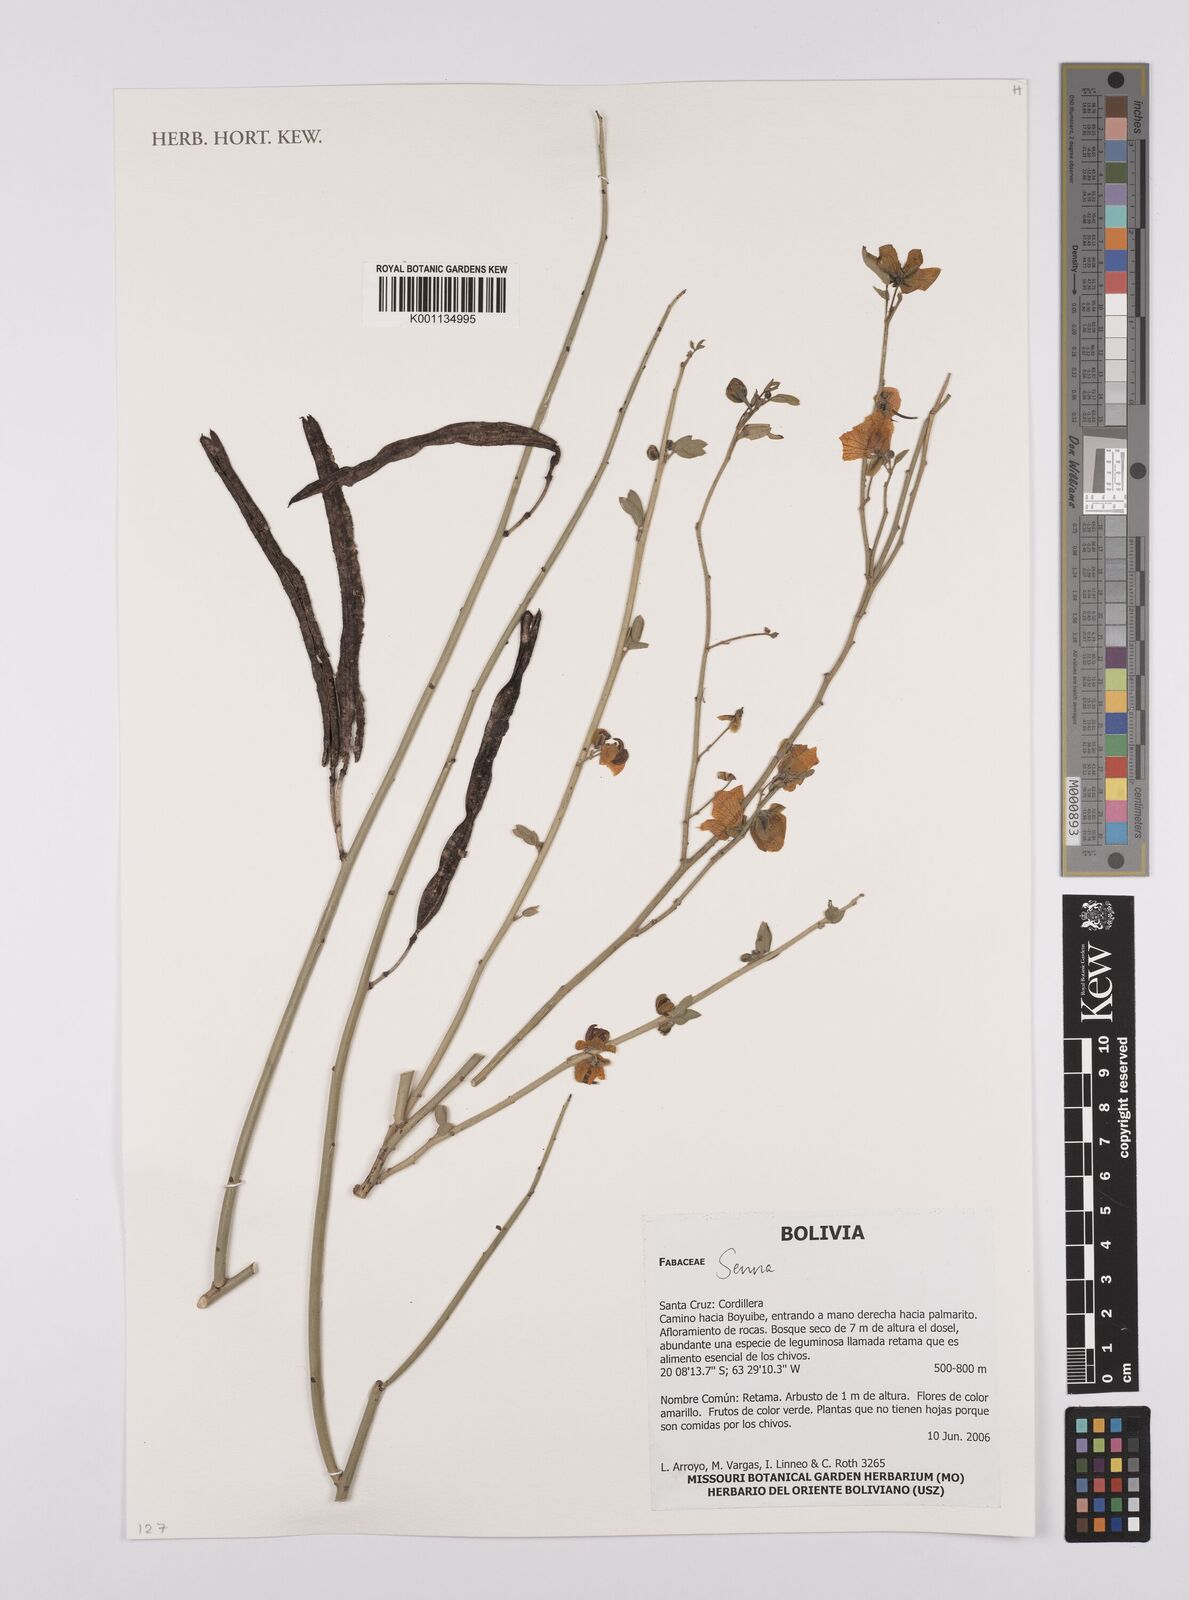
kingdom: Plantae
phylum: Tracheophyta
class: Magnoliopsida
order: Fabales
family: Fabaceae
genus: Senna
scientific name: Senna
